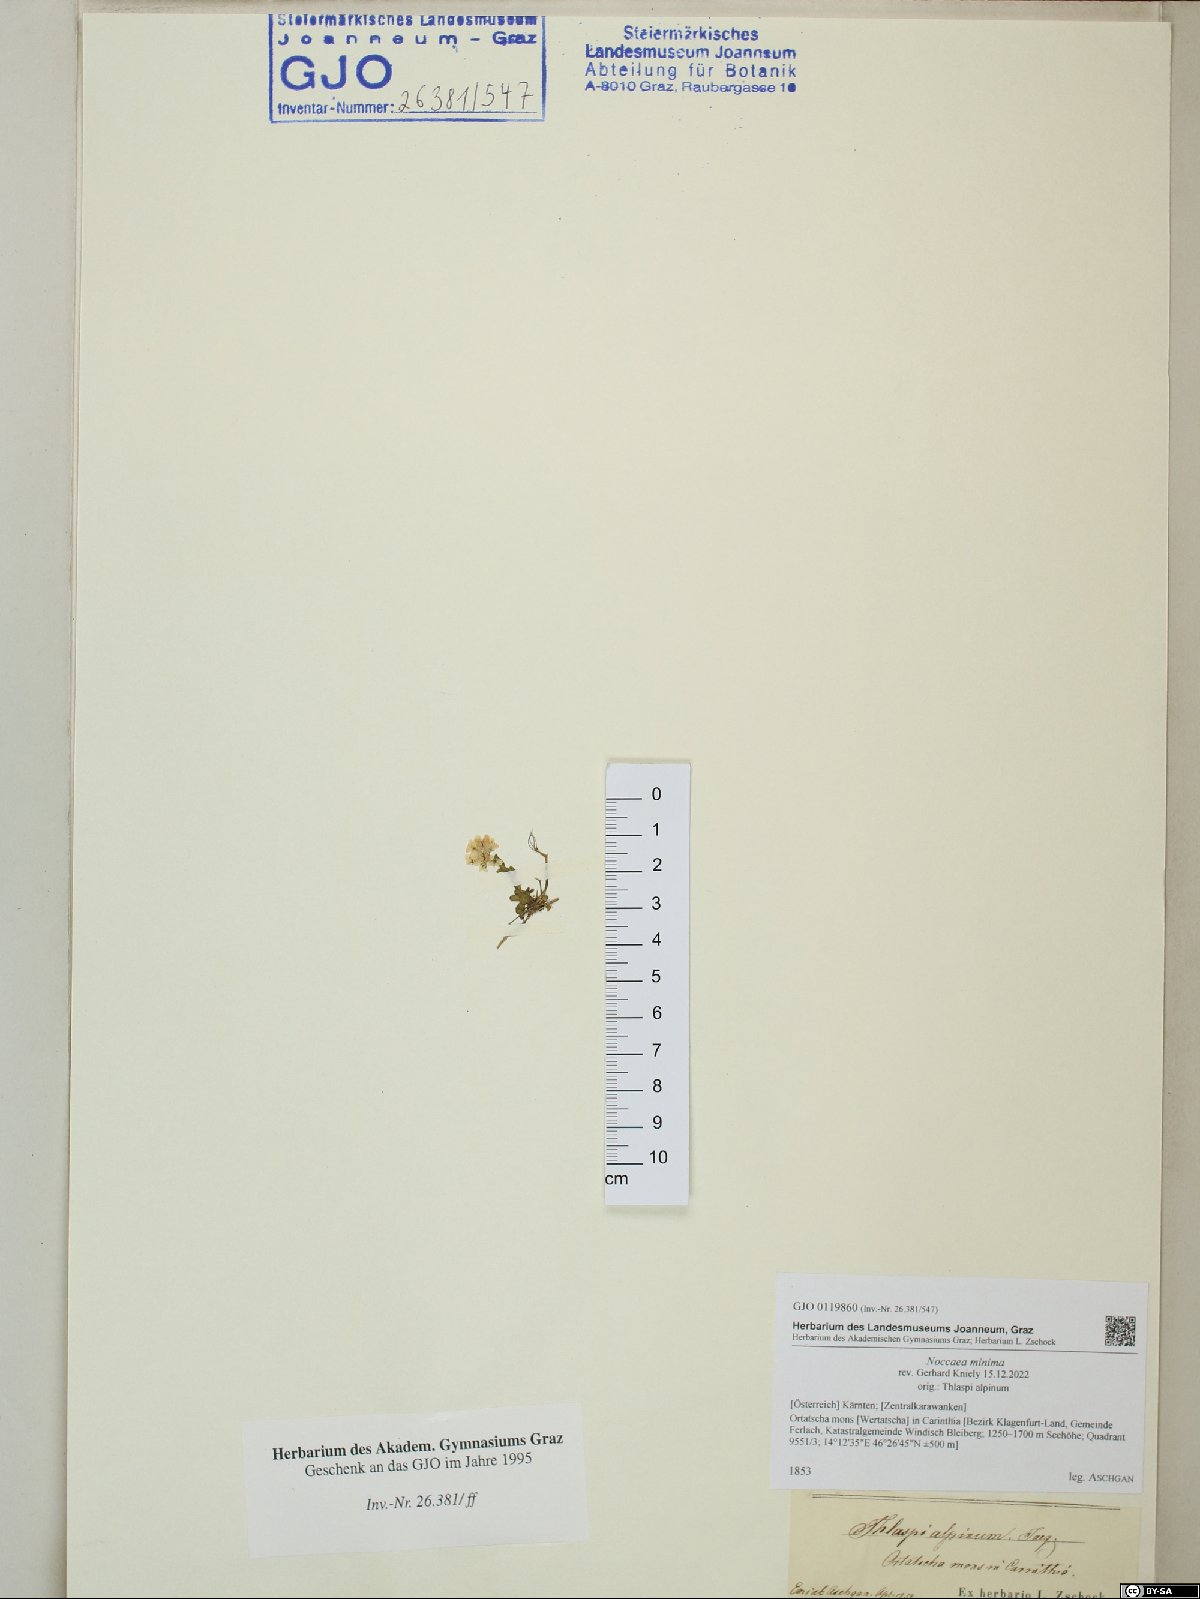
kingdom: Plantae
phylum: Tracheophyta
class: Magnoliopsida
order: Brassicales
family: Brassicaceae
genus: Noccaea
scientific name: Noccaea minima
